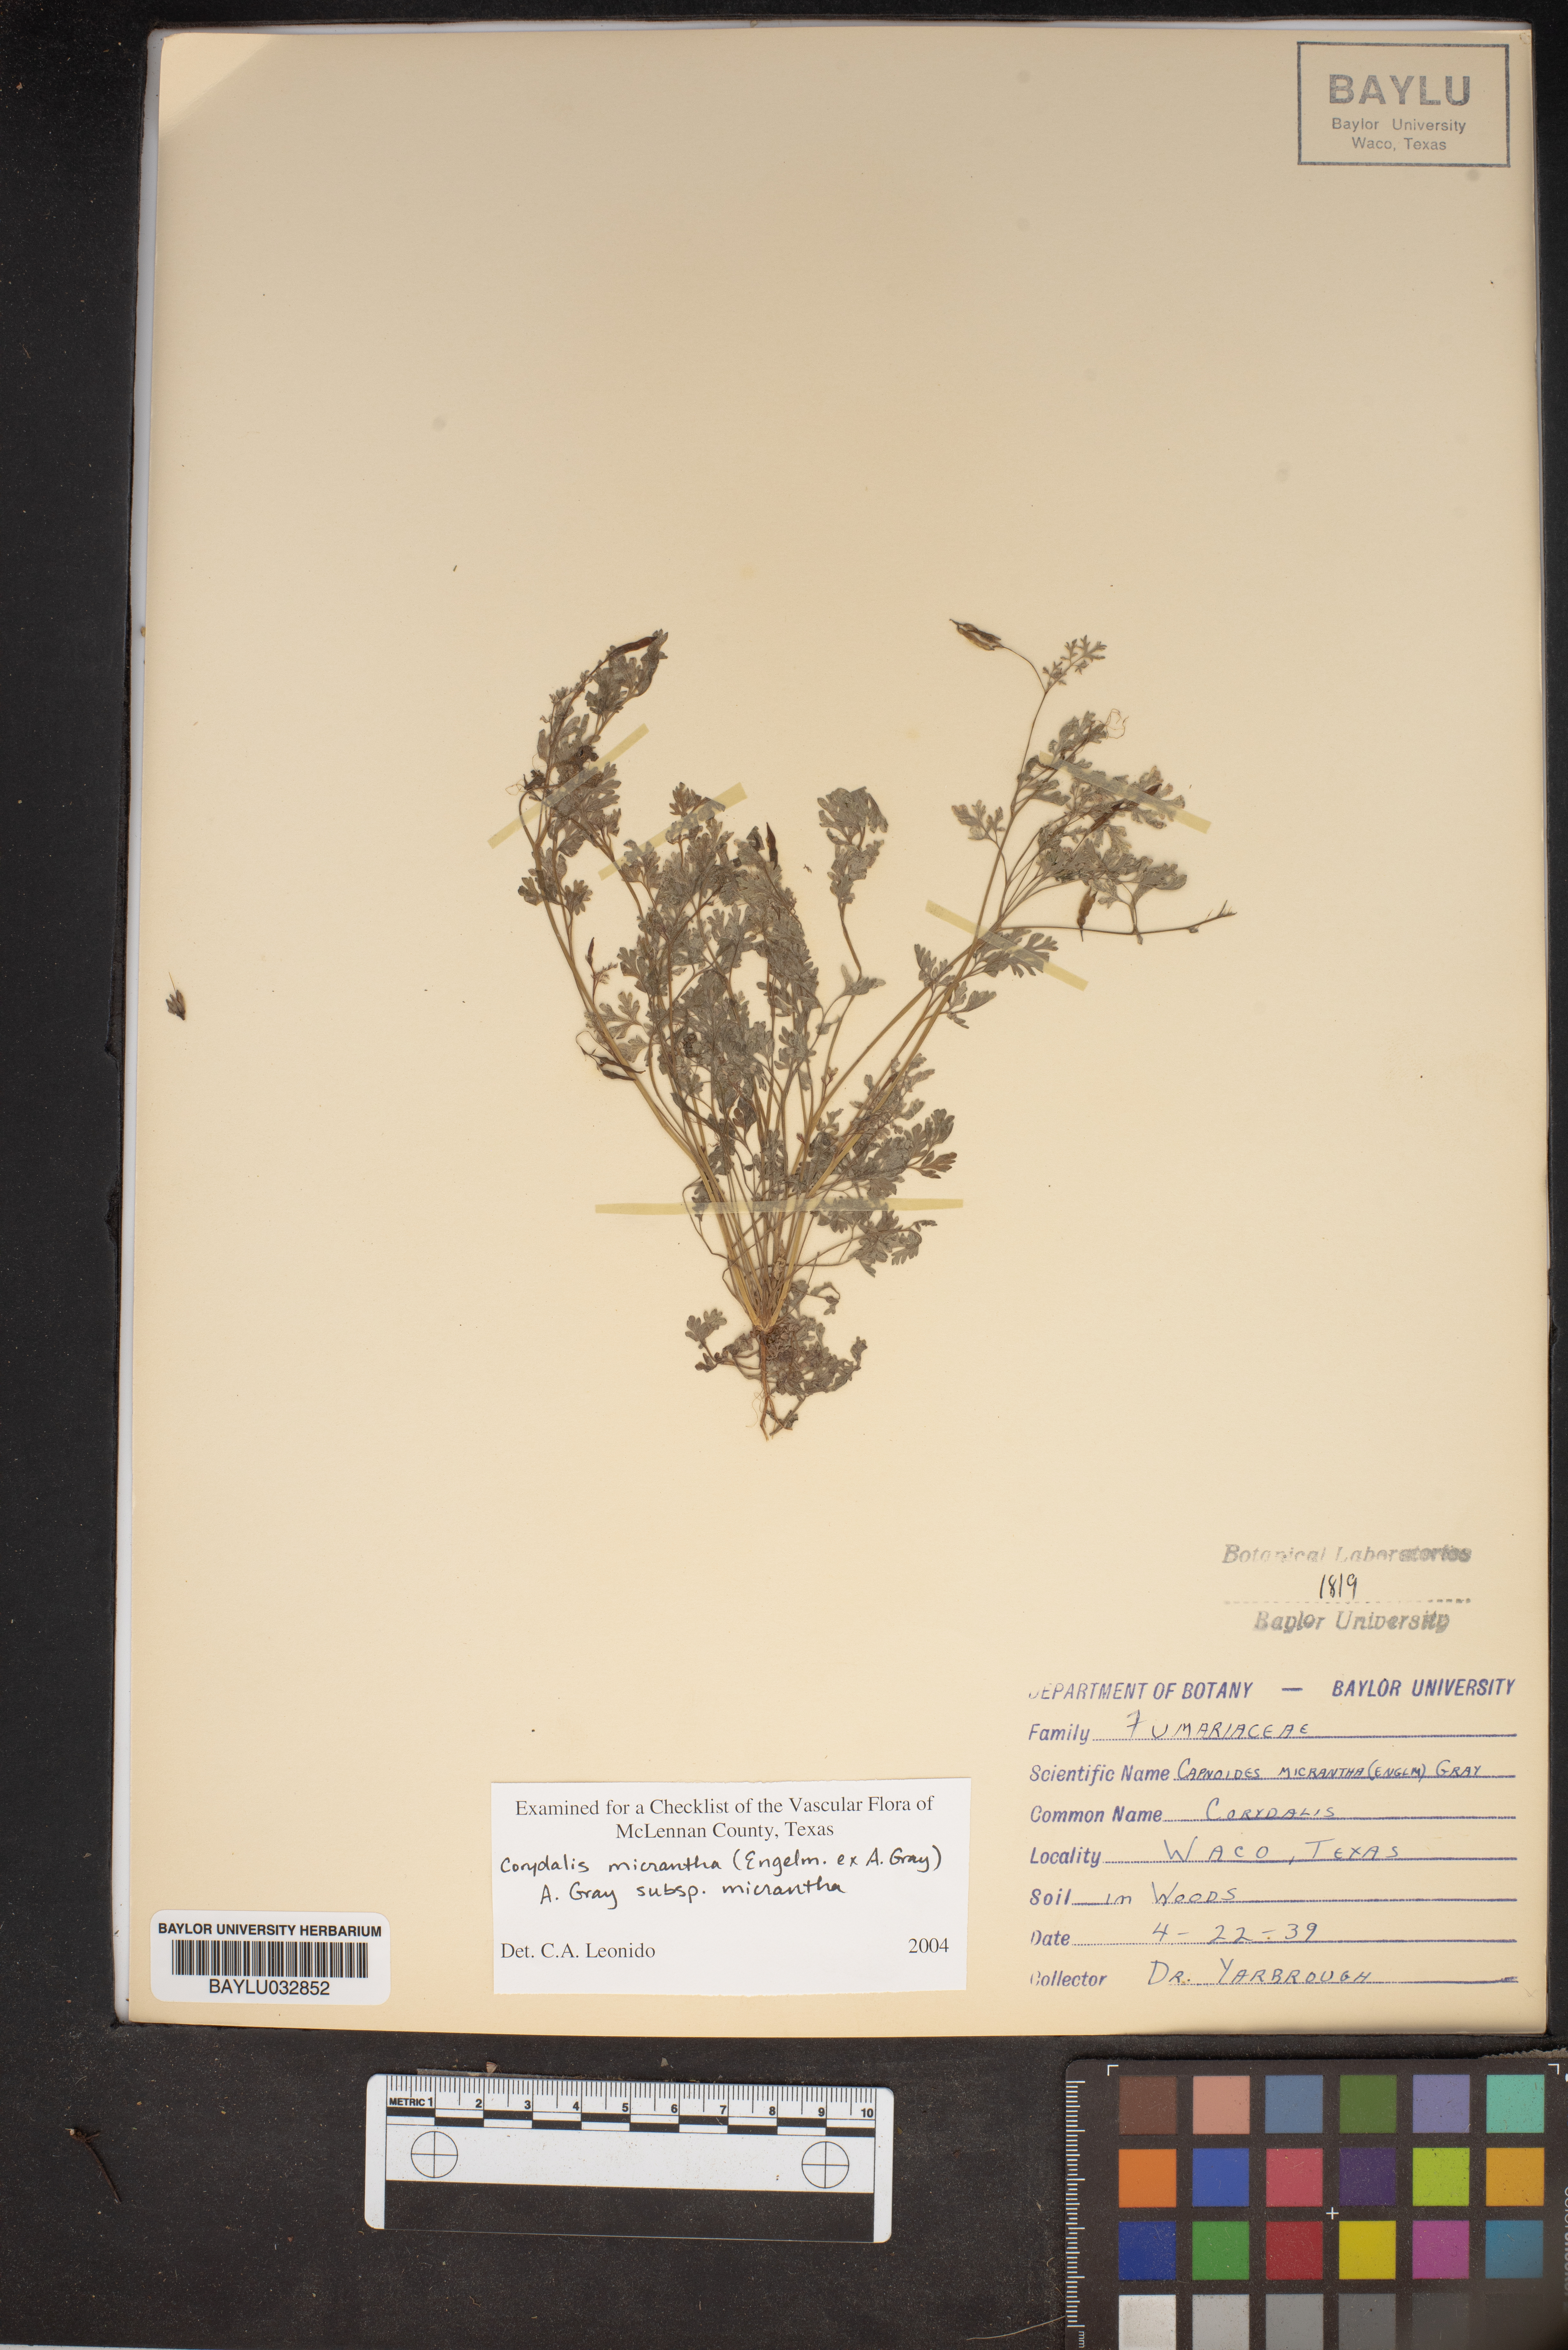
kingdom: Plantae
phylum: Tracheophyta
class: Magnoliopsida
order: Ranunculales
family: Papaveraceae
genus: Corydalis
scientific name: Corydalis micrantha
